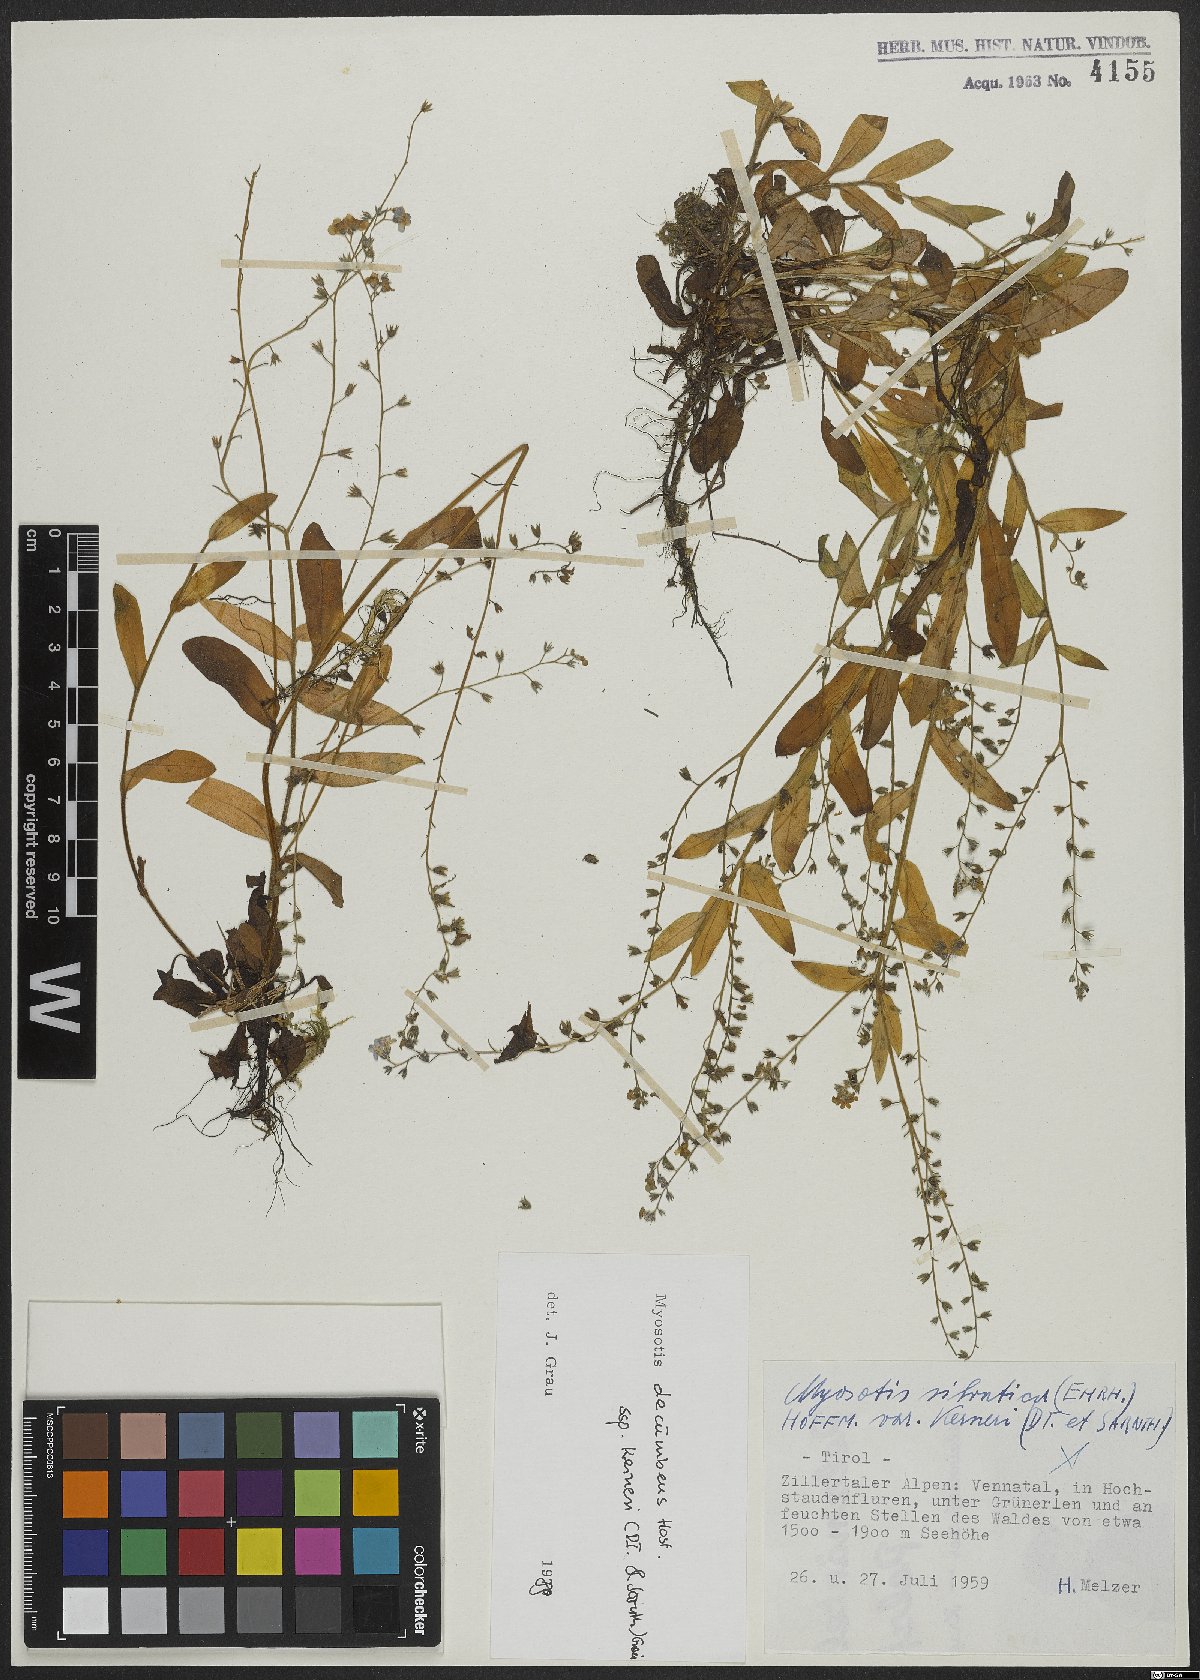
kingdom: Plantae
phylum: Tracheophyta
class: Magnoliopsida
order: Boraginales
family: Boraginaceae
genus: Myosotis
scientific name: Myosotis decumbens
